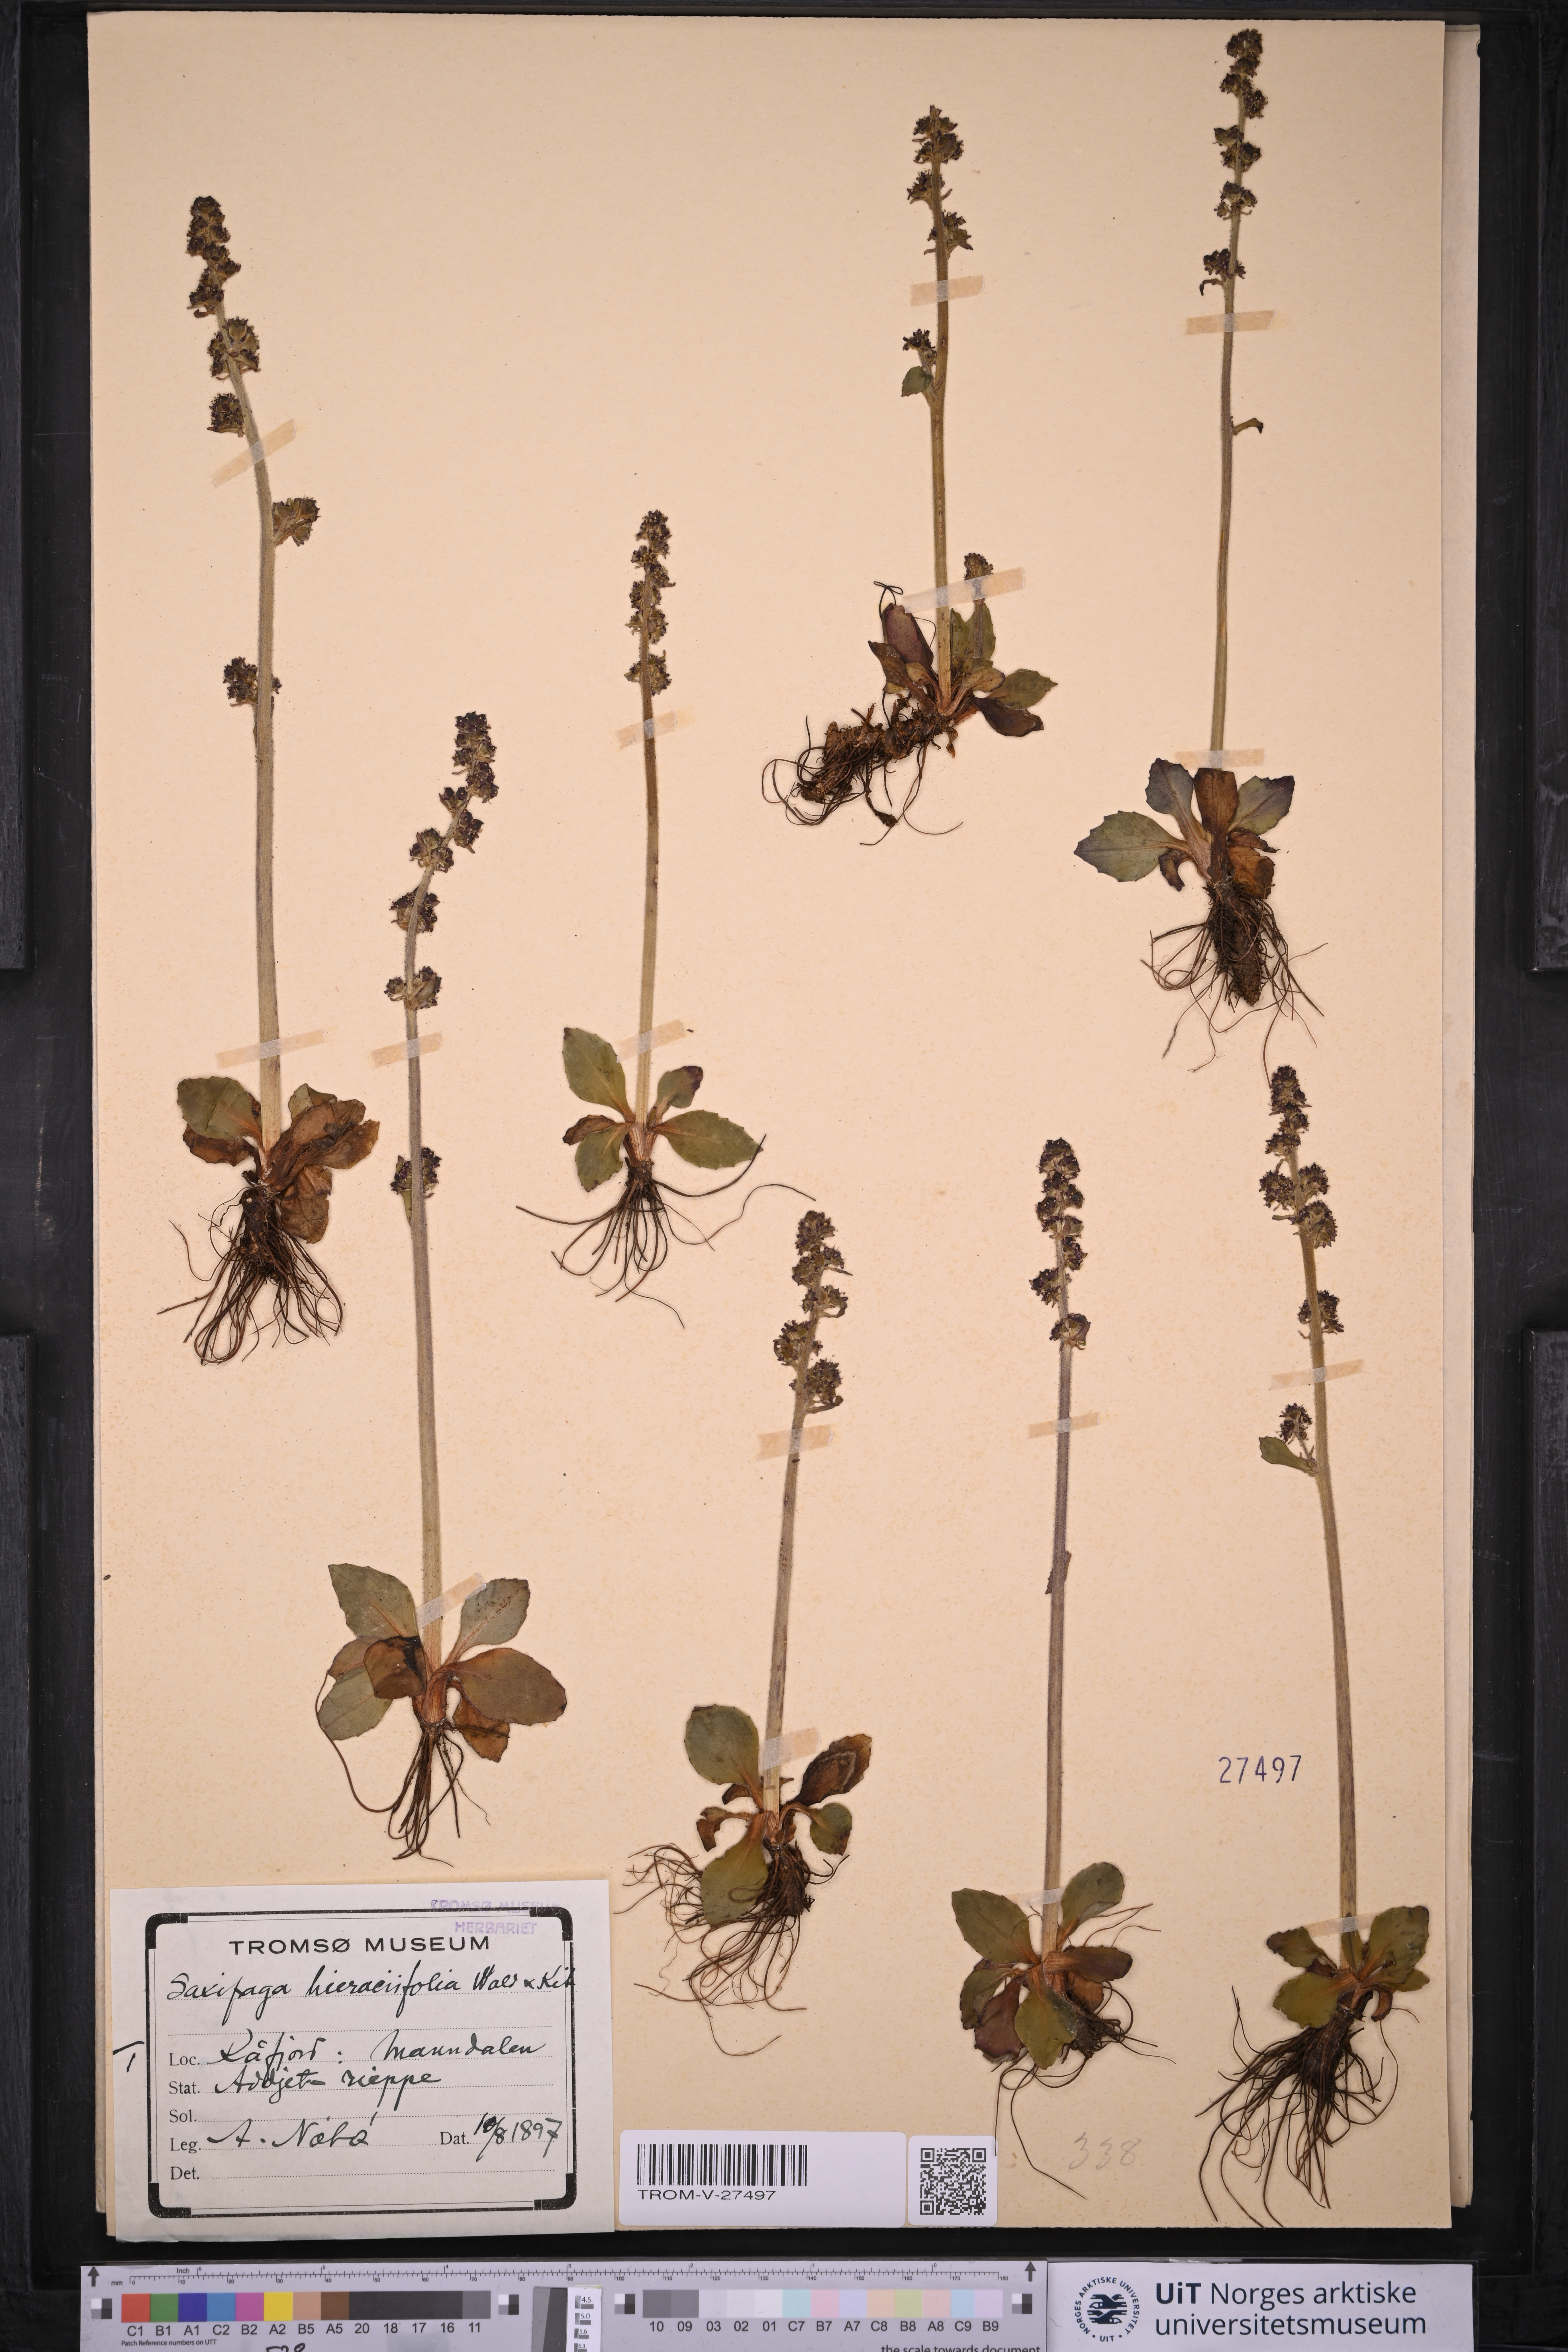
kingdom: Plantae
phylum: Tracheophyta
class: Magnoliopsida
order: Saxifragales
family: Saxifragaceae
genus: Micranthes
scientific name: Micranthes hieraciifolia
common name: Hawkweed-leaved saxifrage
